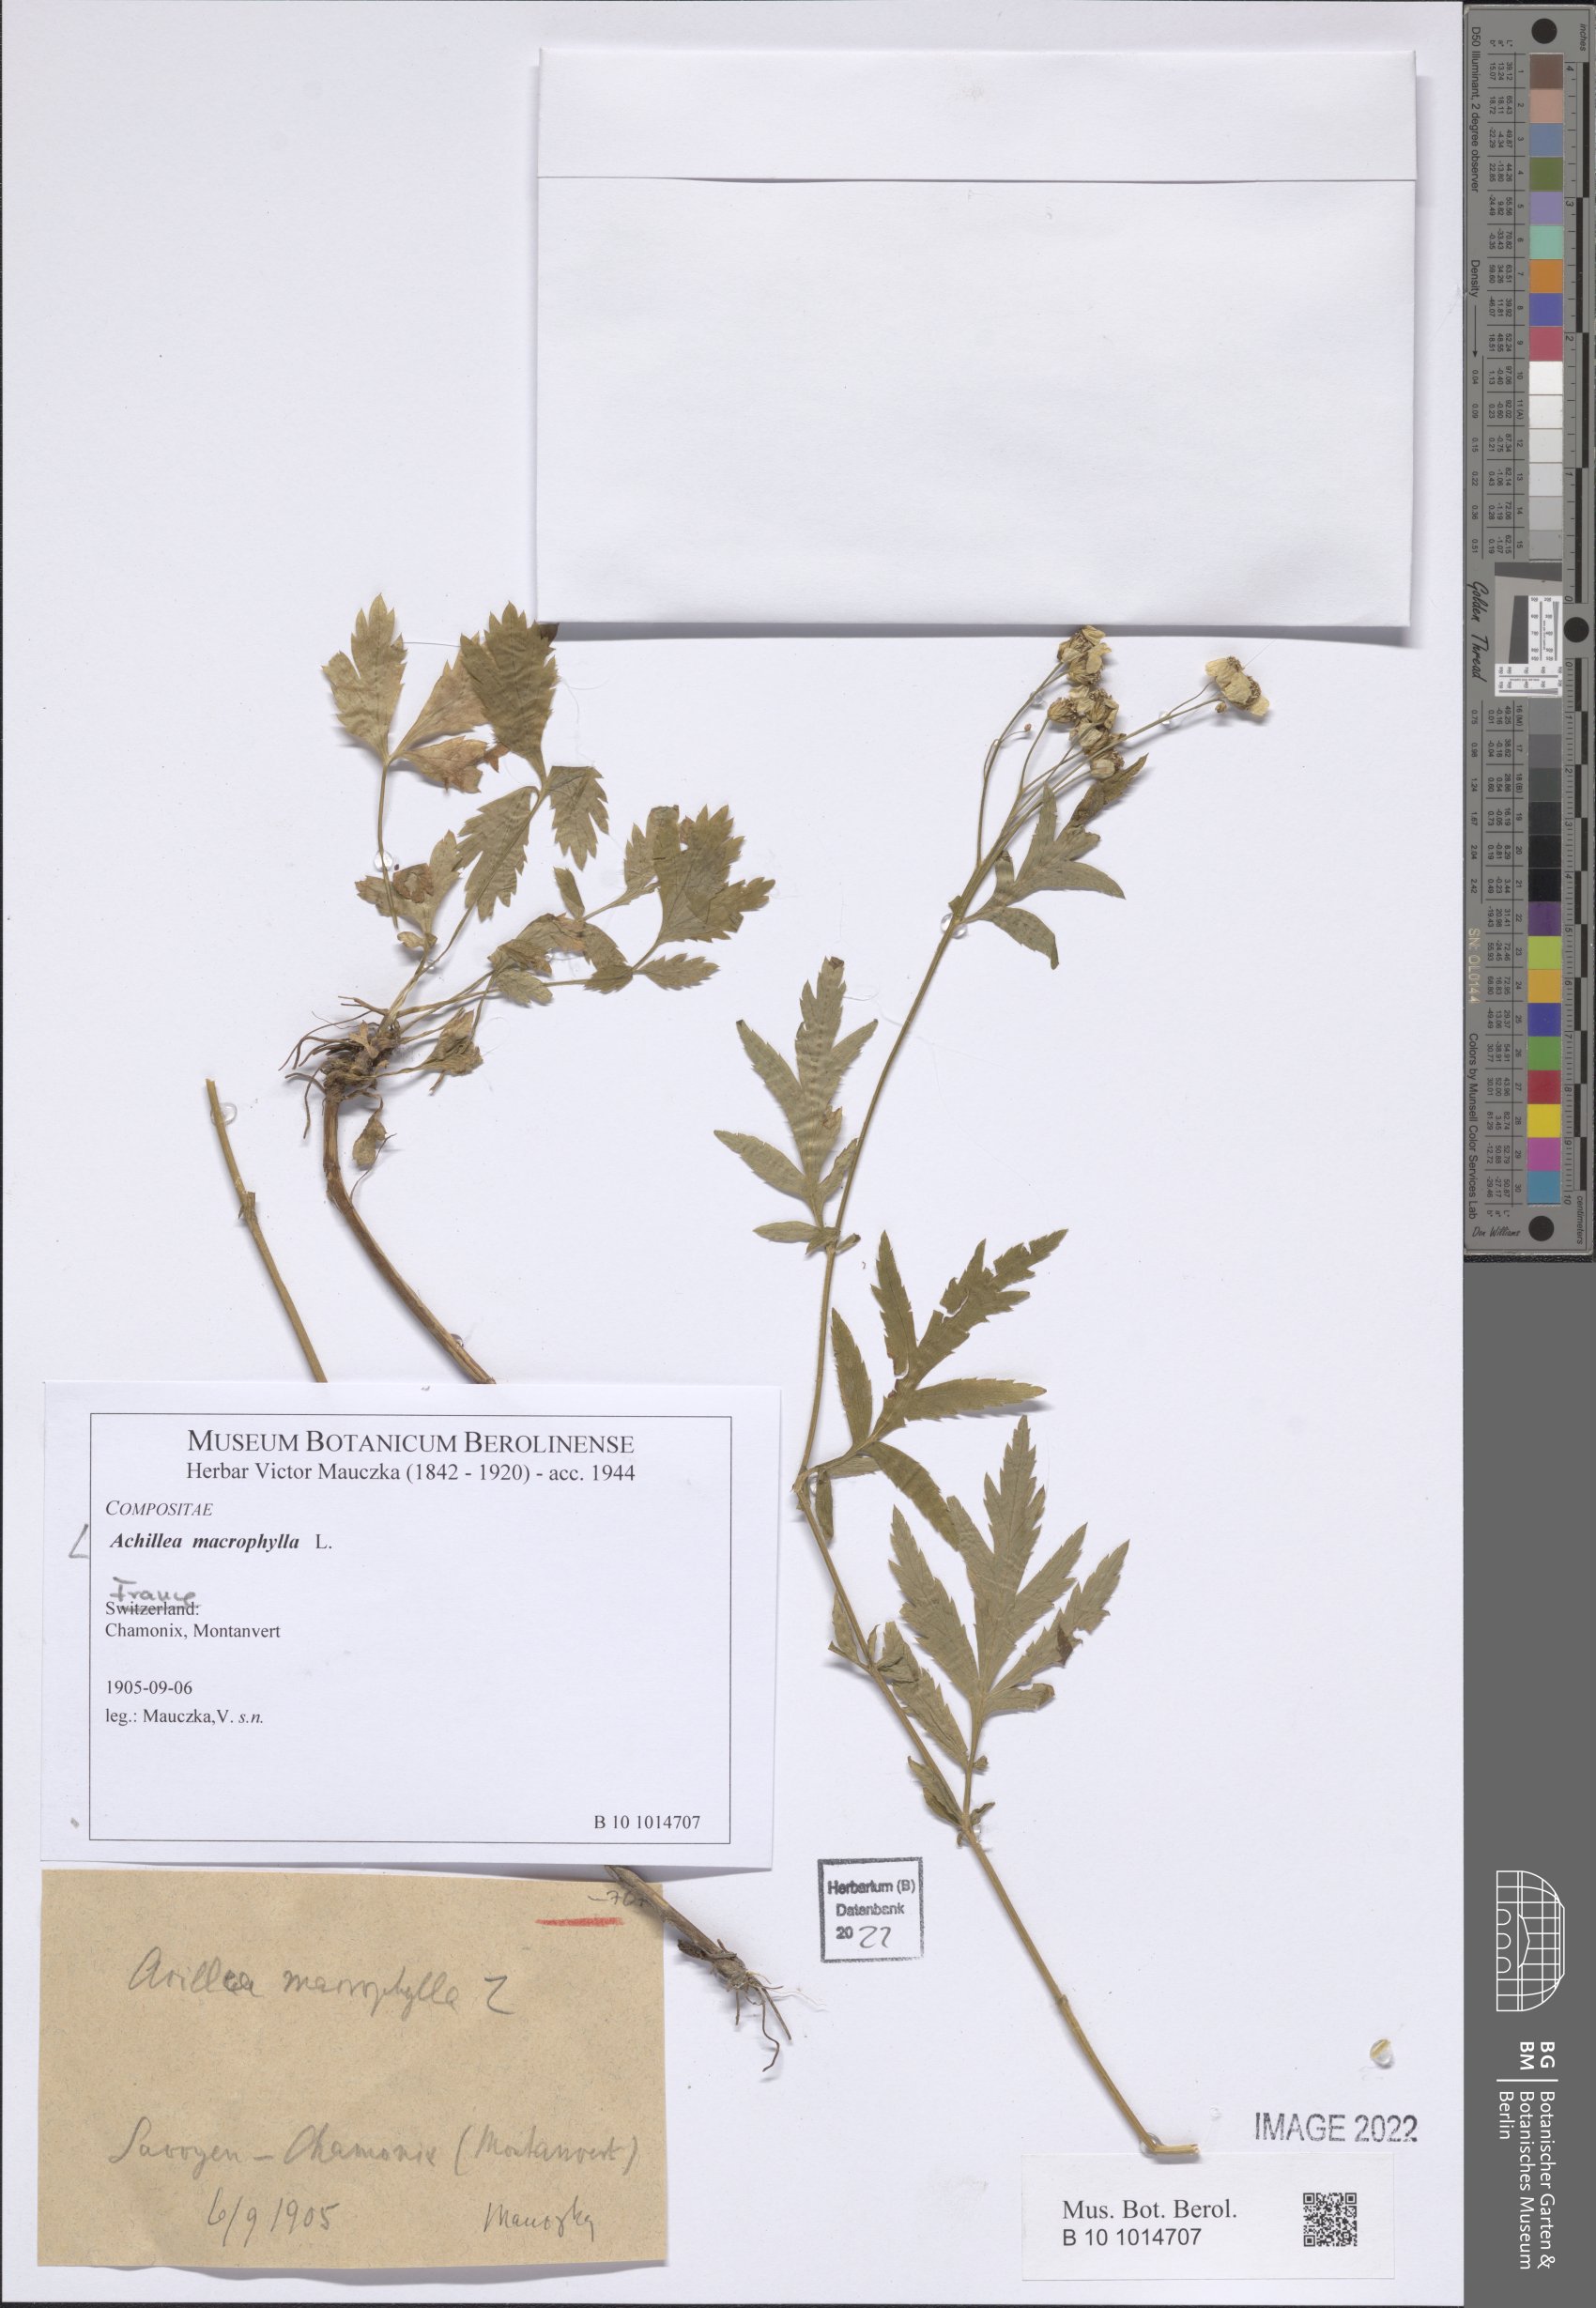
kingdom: Plantae
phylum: Tracheophyta
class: Magnoliopsida
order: Asterales
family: Asteraceae
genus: Achillea
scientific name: Achillea macrophylla
